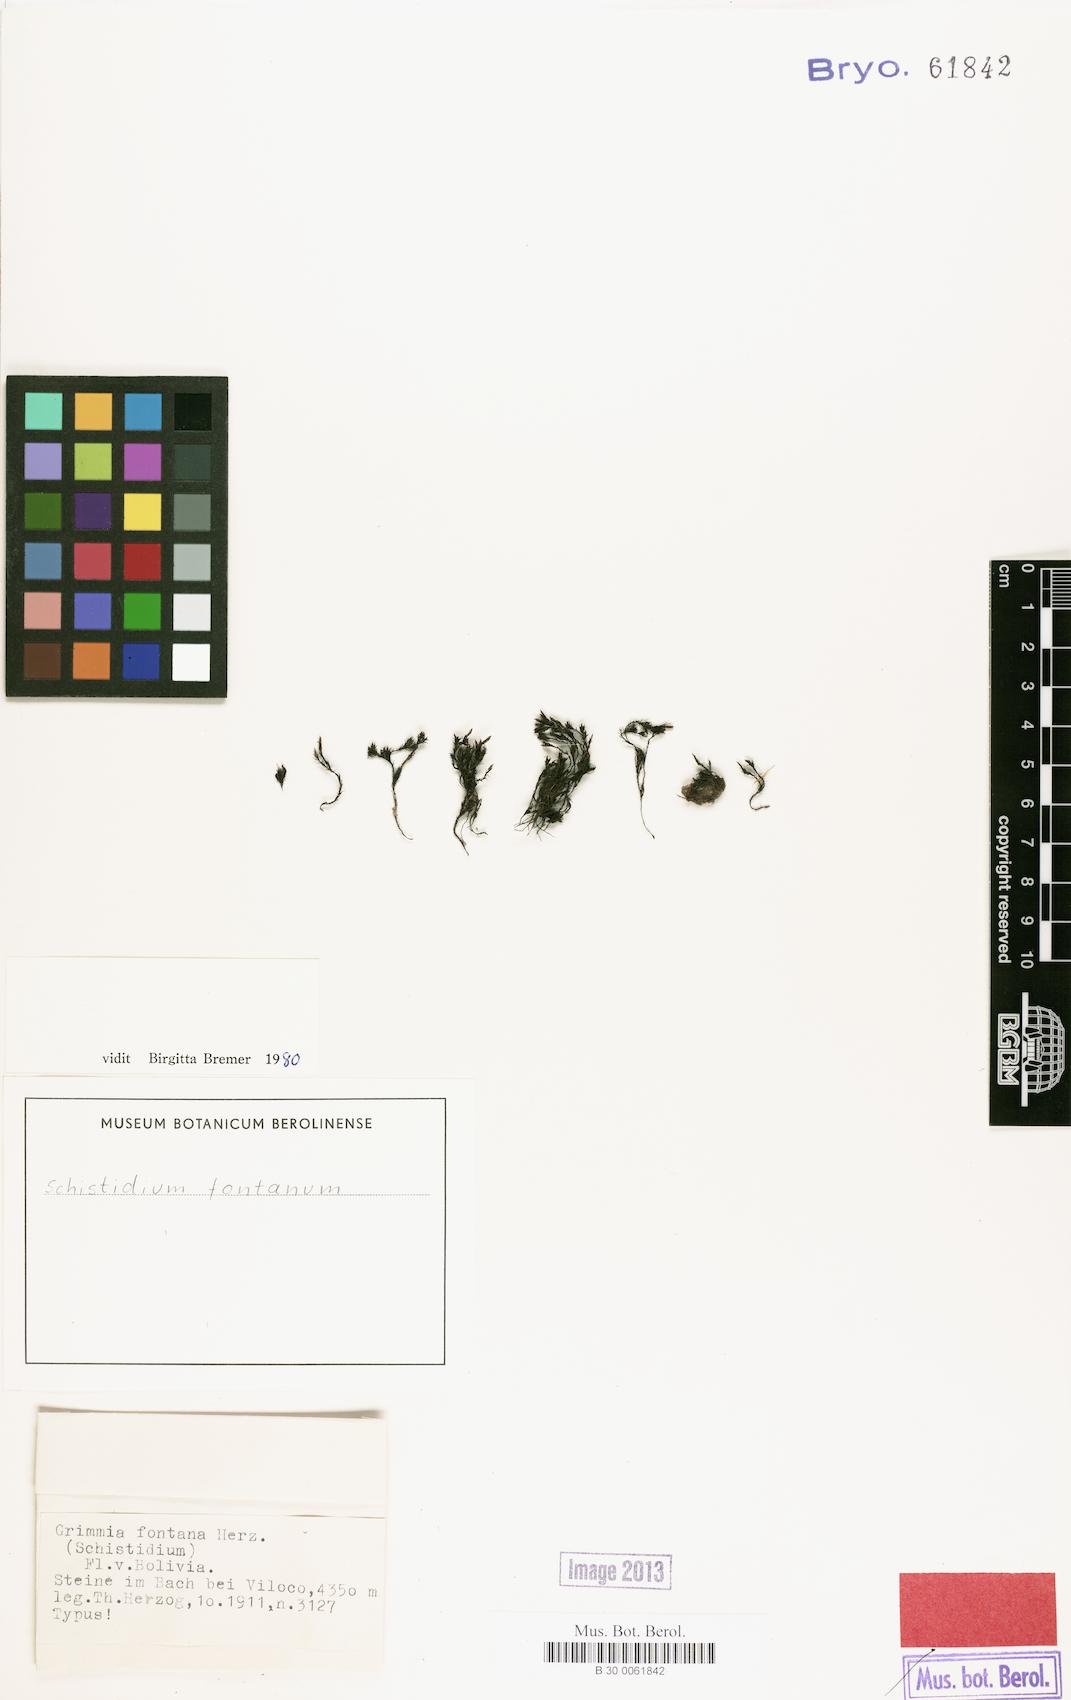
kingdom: Plantae
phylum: Bryophyta
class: Bryopsida
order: Grimmiales
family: Grimmiaceae
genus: Schistidium
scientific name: Schistidium falcatum
